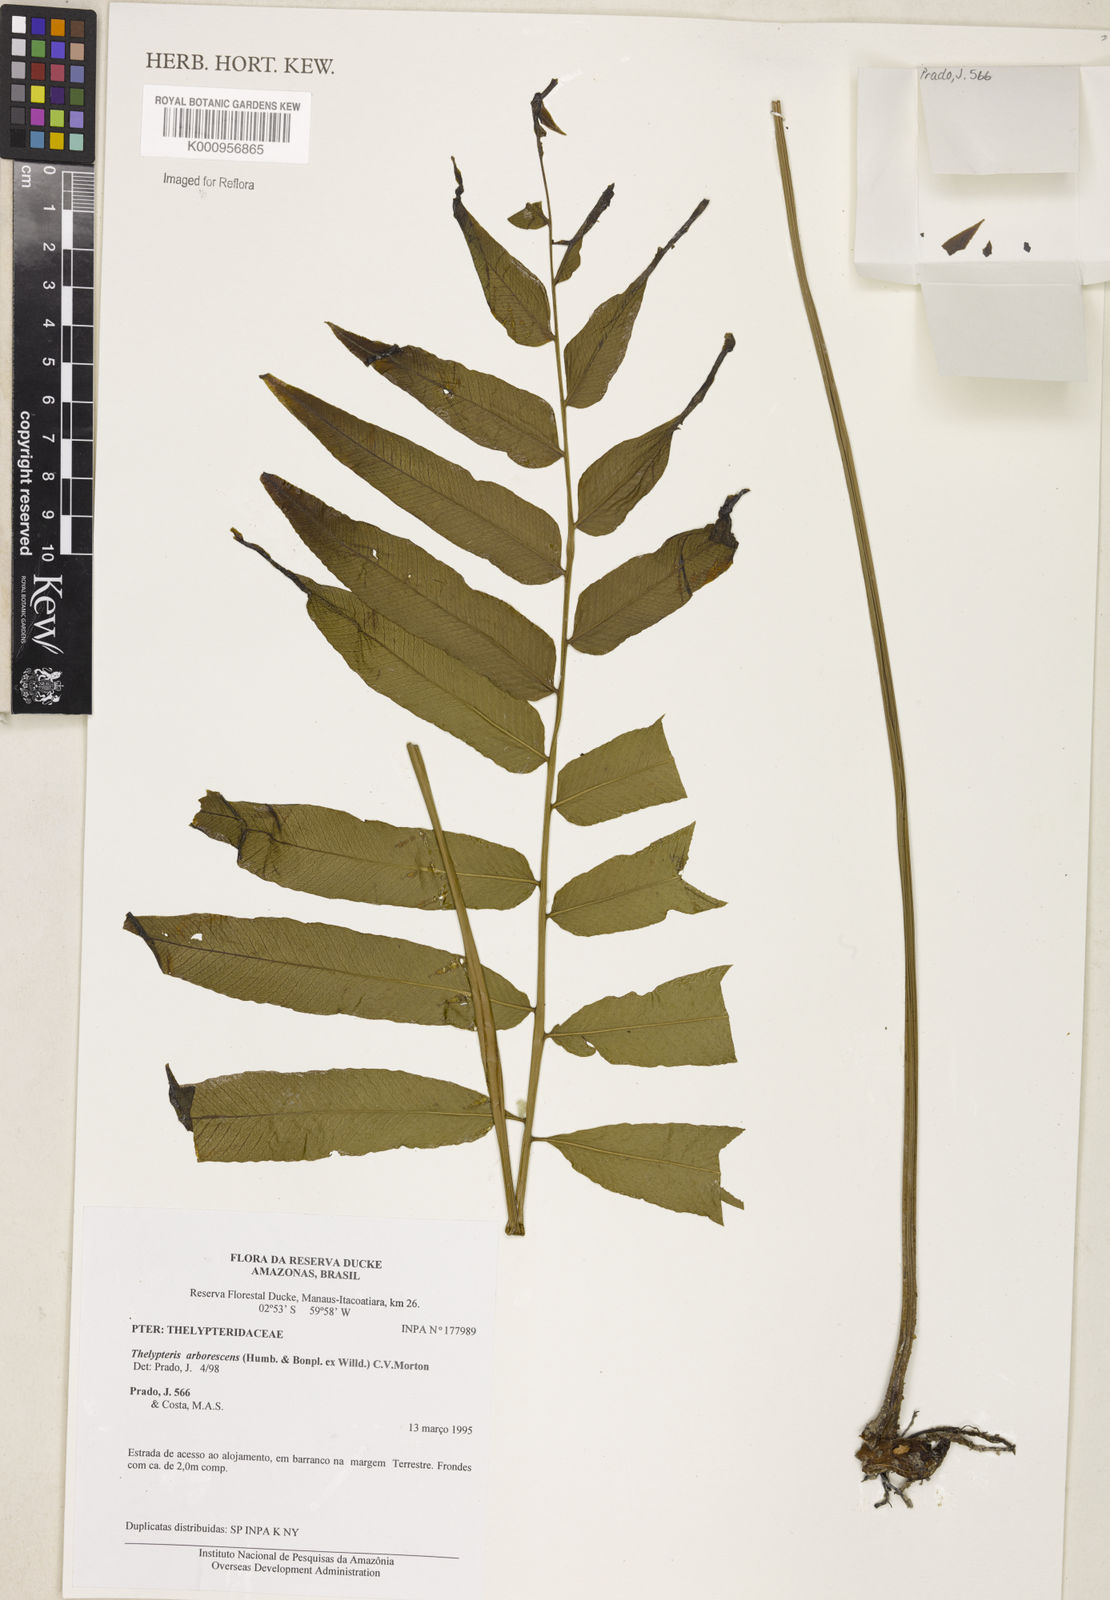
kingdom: Plantae
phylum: Tracheophyta
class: Polypodiopsida
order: Polypodiales
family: Thelypteridaceae
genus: Meniscium
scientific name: Meniscium arborescens
